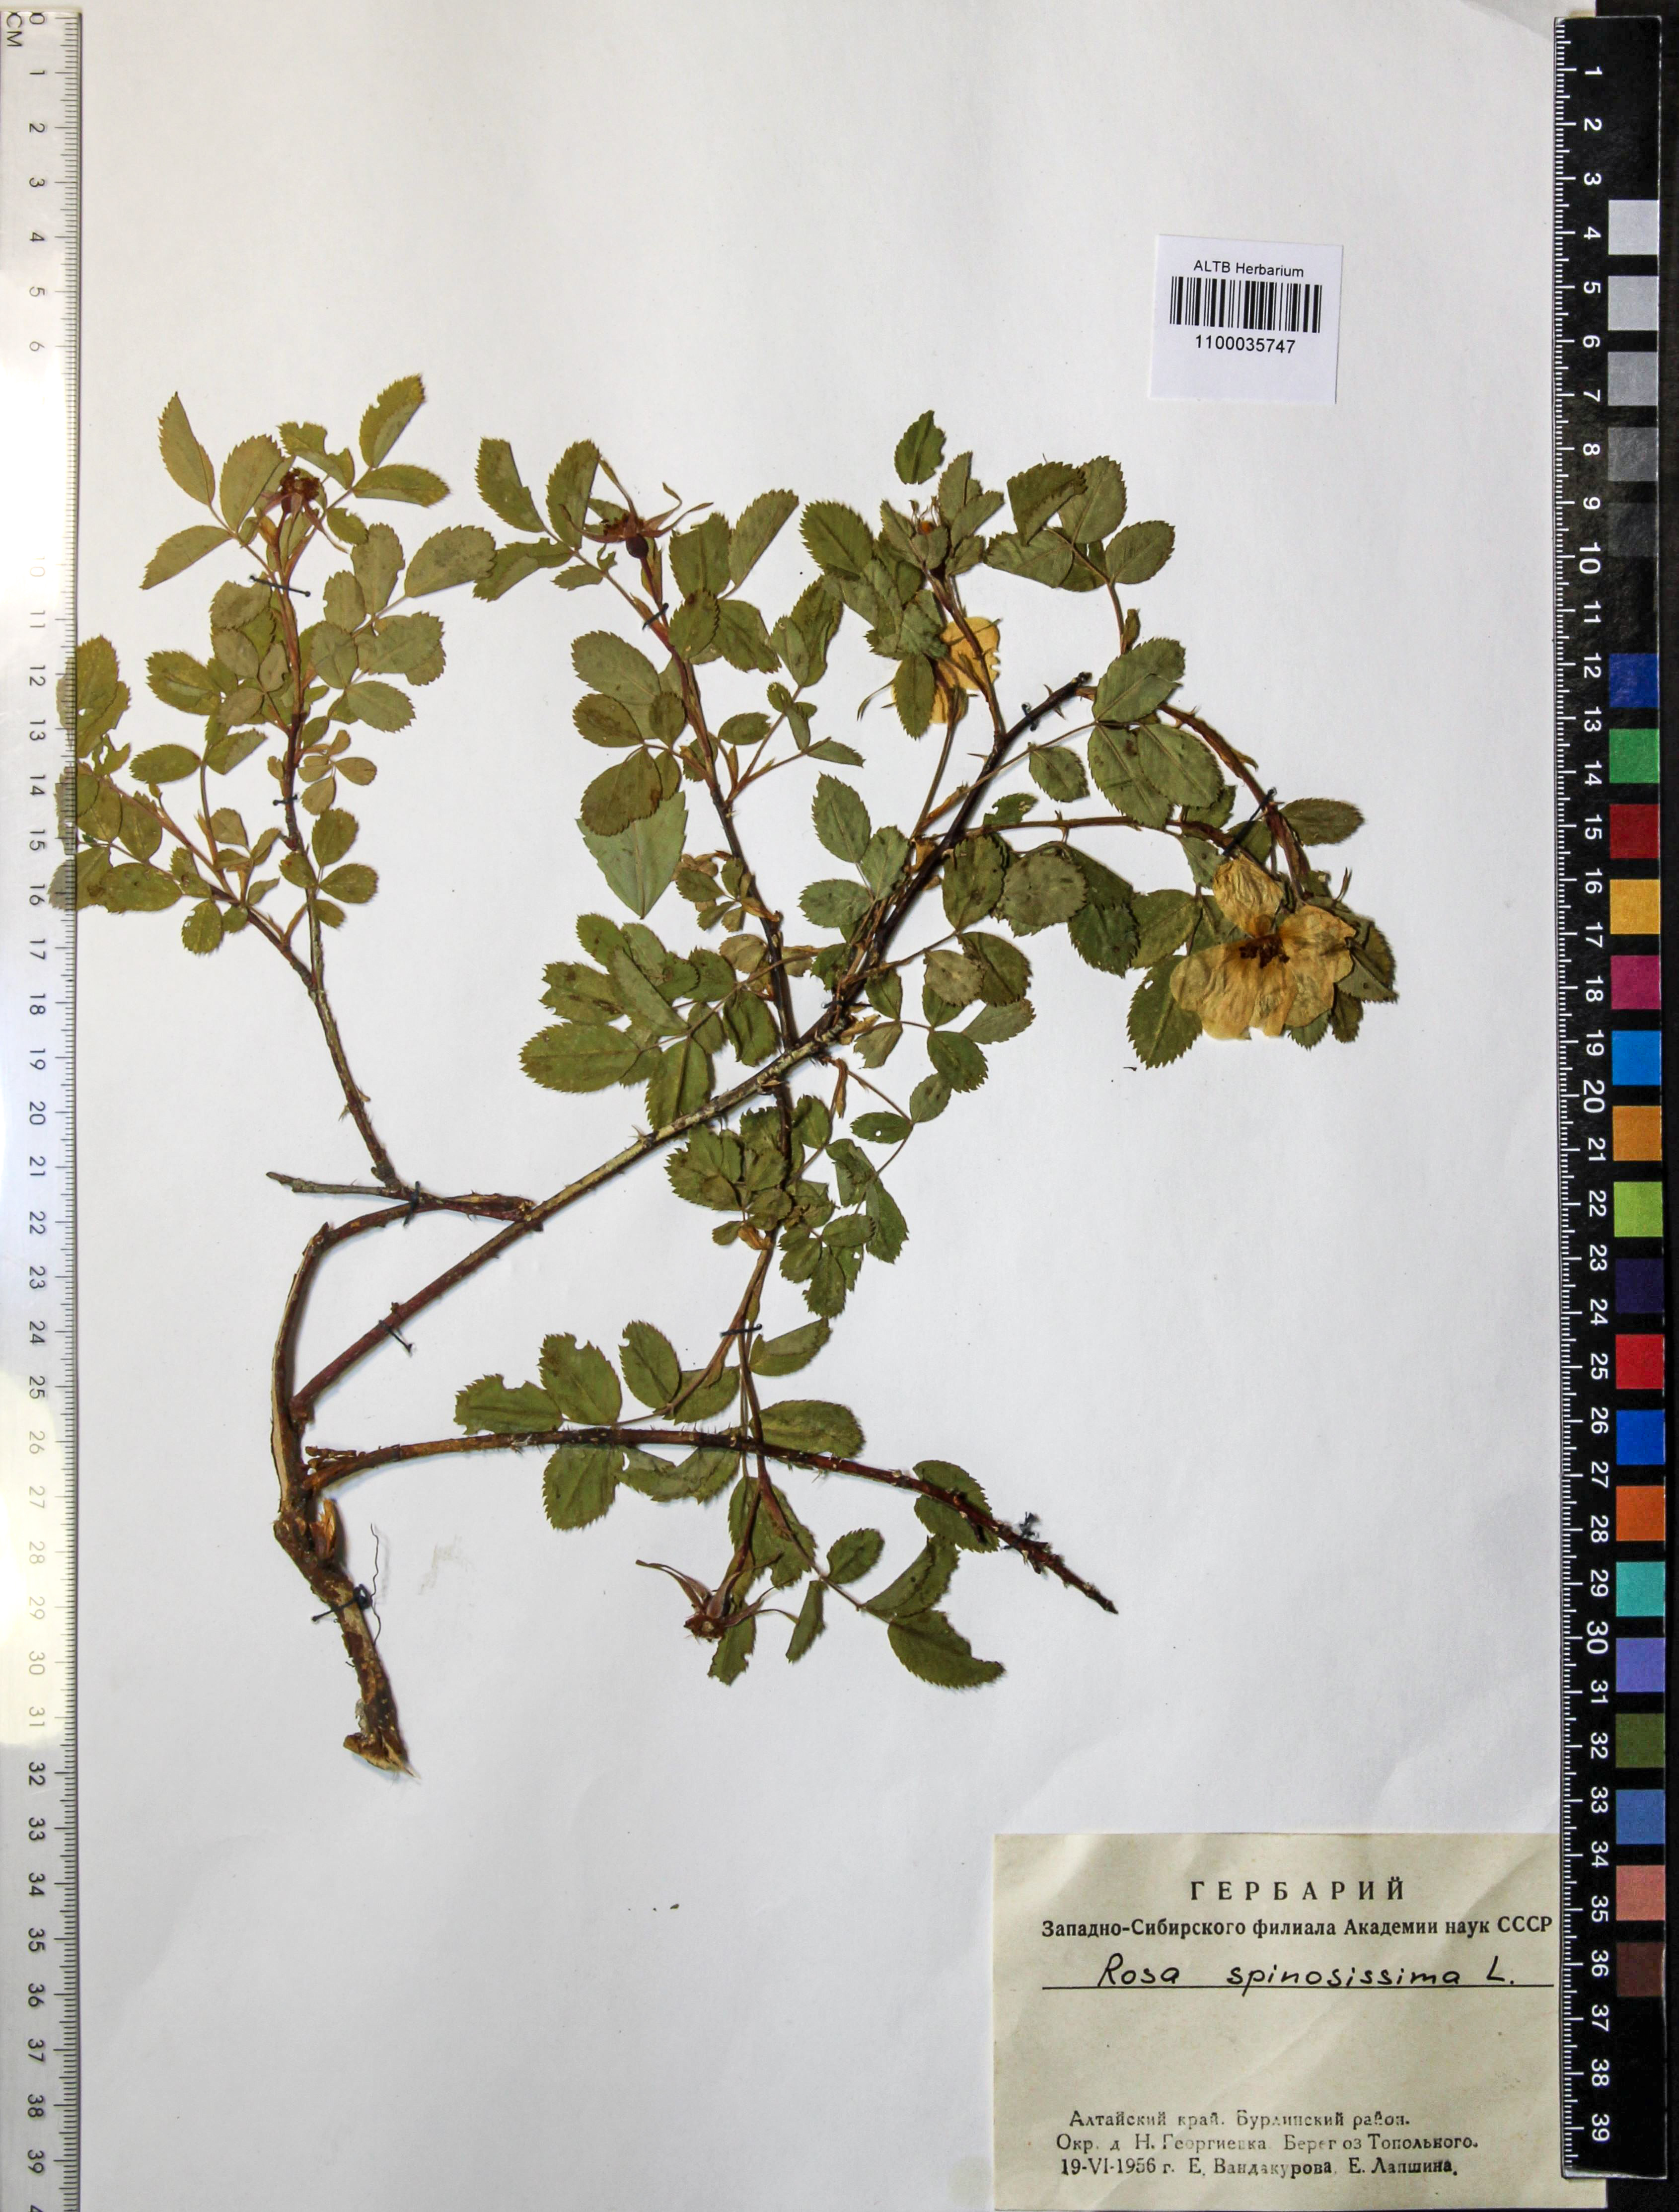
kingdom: Plantae
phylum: Tracheophyta
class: Magnoliopsida
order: Rosales
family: Rosaceae
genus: Rosa
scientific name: Rosa spinosissima
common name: Burnet rose
